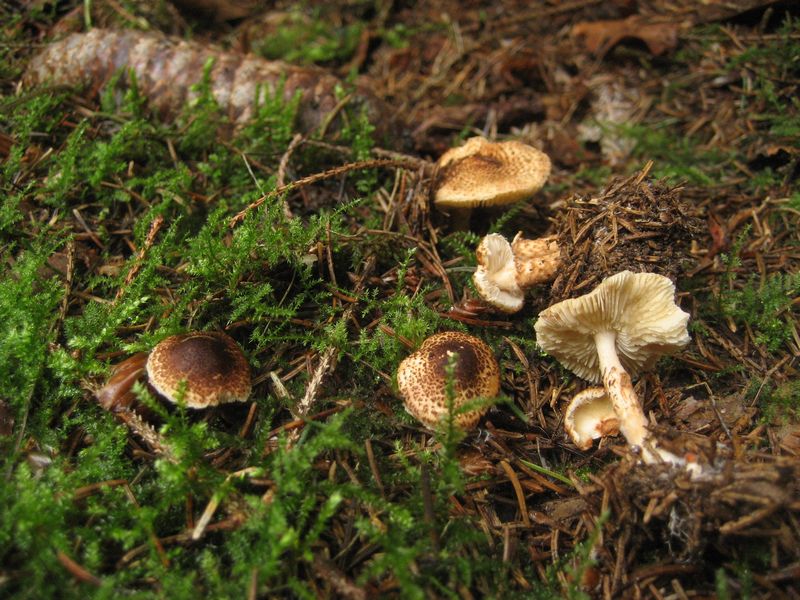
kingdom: Fungi
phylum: Basidiomycota
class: Agaricomycetes
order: Agaricales
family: Agaricaceae
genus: Lepiota
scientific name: Lepiota castanea
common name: kastaniebrun parasolhat
